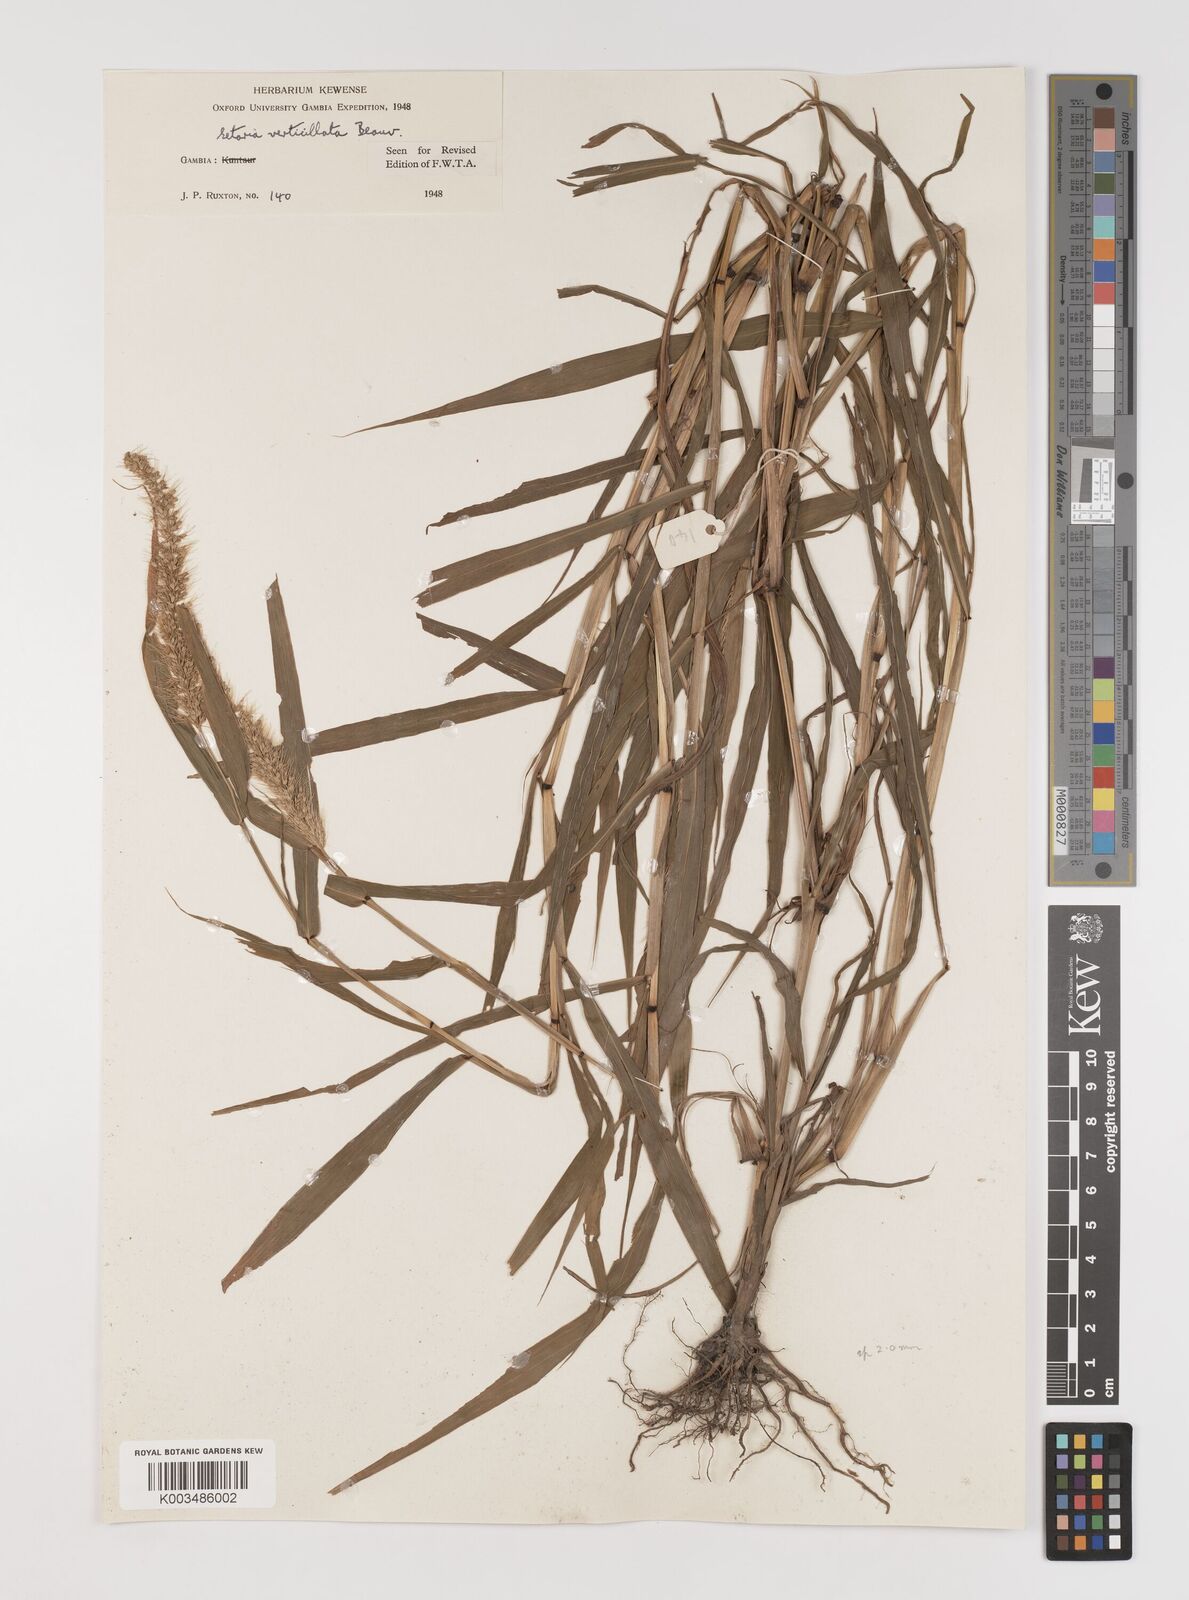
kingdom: Plantae
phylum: Tracheophyta
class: Liliopsida
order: Poales
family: Poaceae
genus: Setaria
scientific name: Setaria verticillata
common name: Hooked bristlegrass
